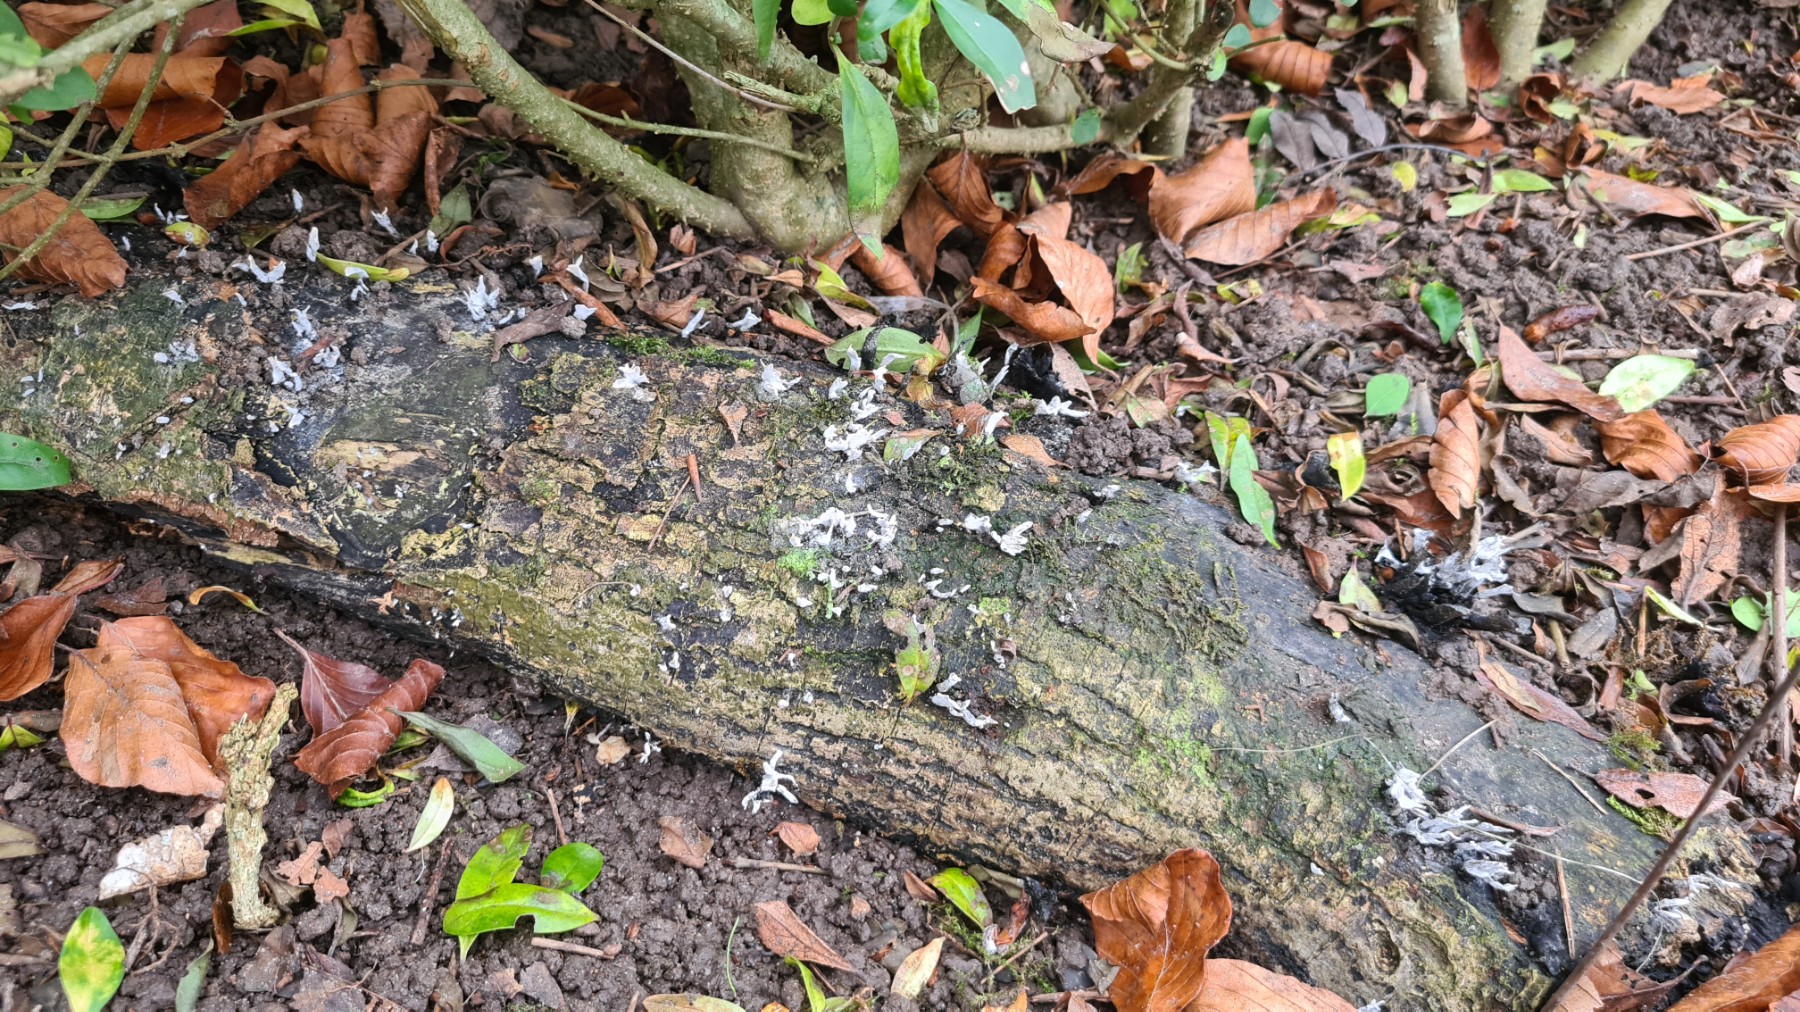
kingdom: Fungi
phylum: Ascomycota
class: Sordariomycetes
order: Xylariales
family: Xylariaceae
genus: Xylaria
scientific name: Xylaria hypoxylon
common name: grenet stødsvamp
